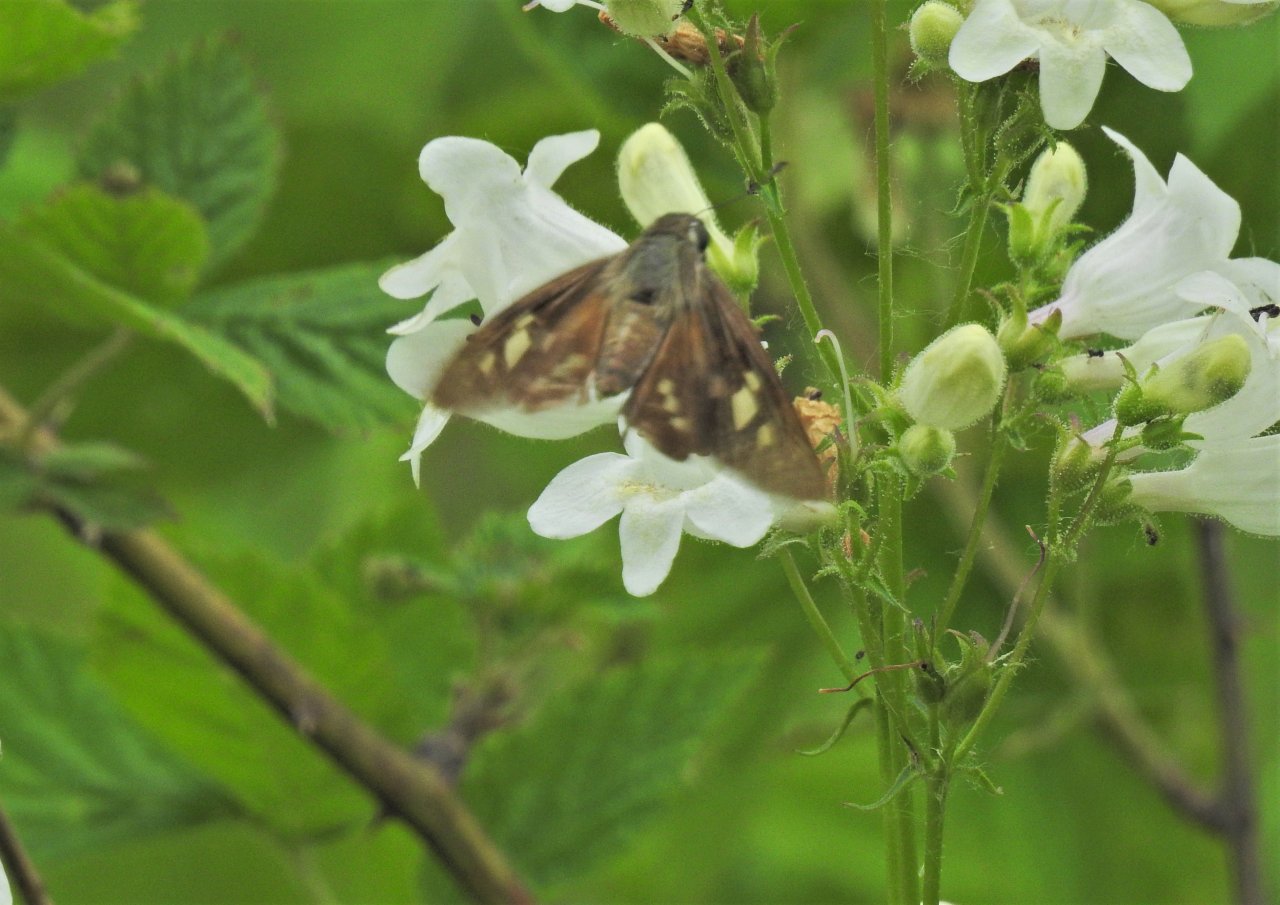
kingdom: Animalia
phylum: Arthropoda
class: Insecta
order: Lepidoptera
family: Hesperiidae
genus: Calpodes
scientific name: Calpodes ethlius
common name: Brazilian Skipper
